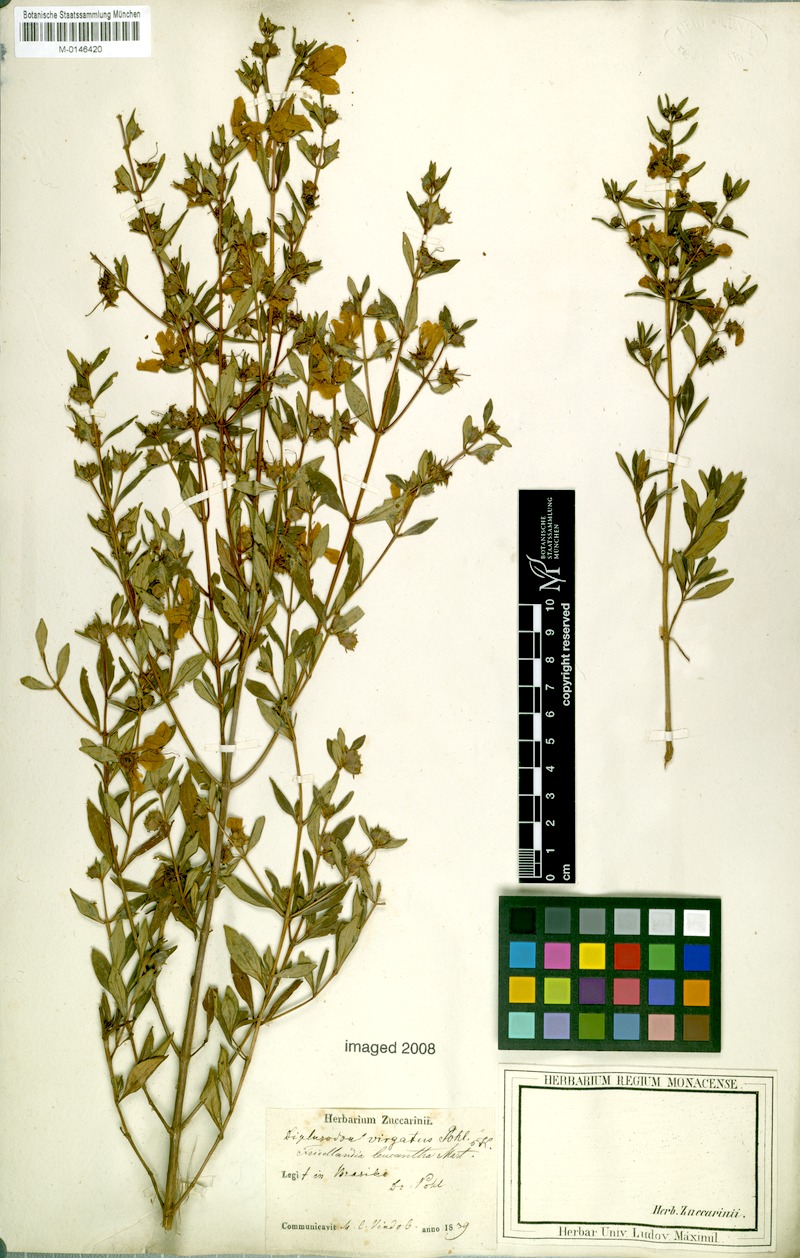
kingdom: Plantae
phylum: Tracheophyta
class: Magnoliopsida
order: Myrtales
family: Lythraceae
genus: Diplusodon
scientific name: Diplusodon virgatus
